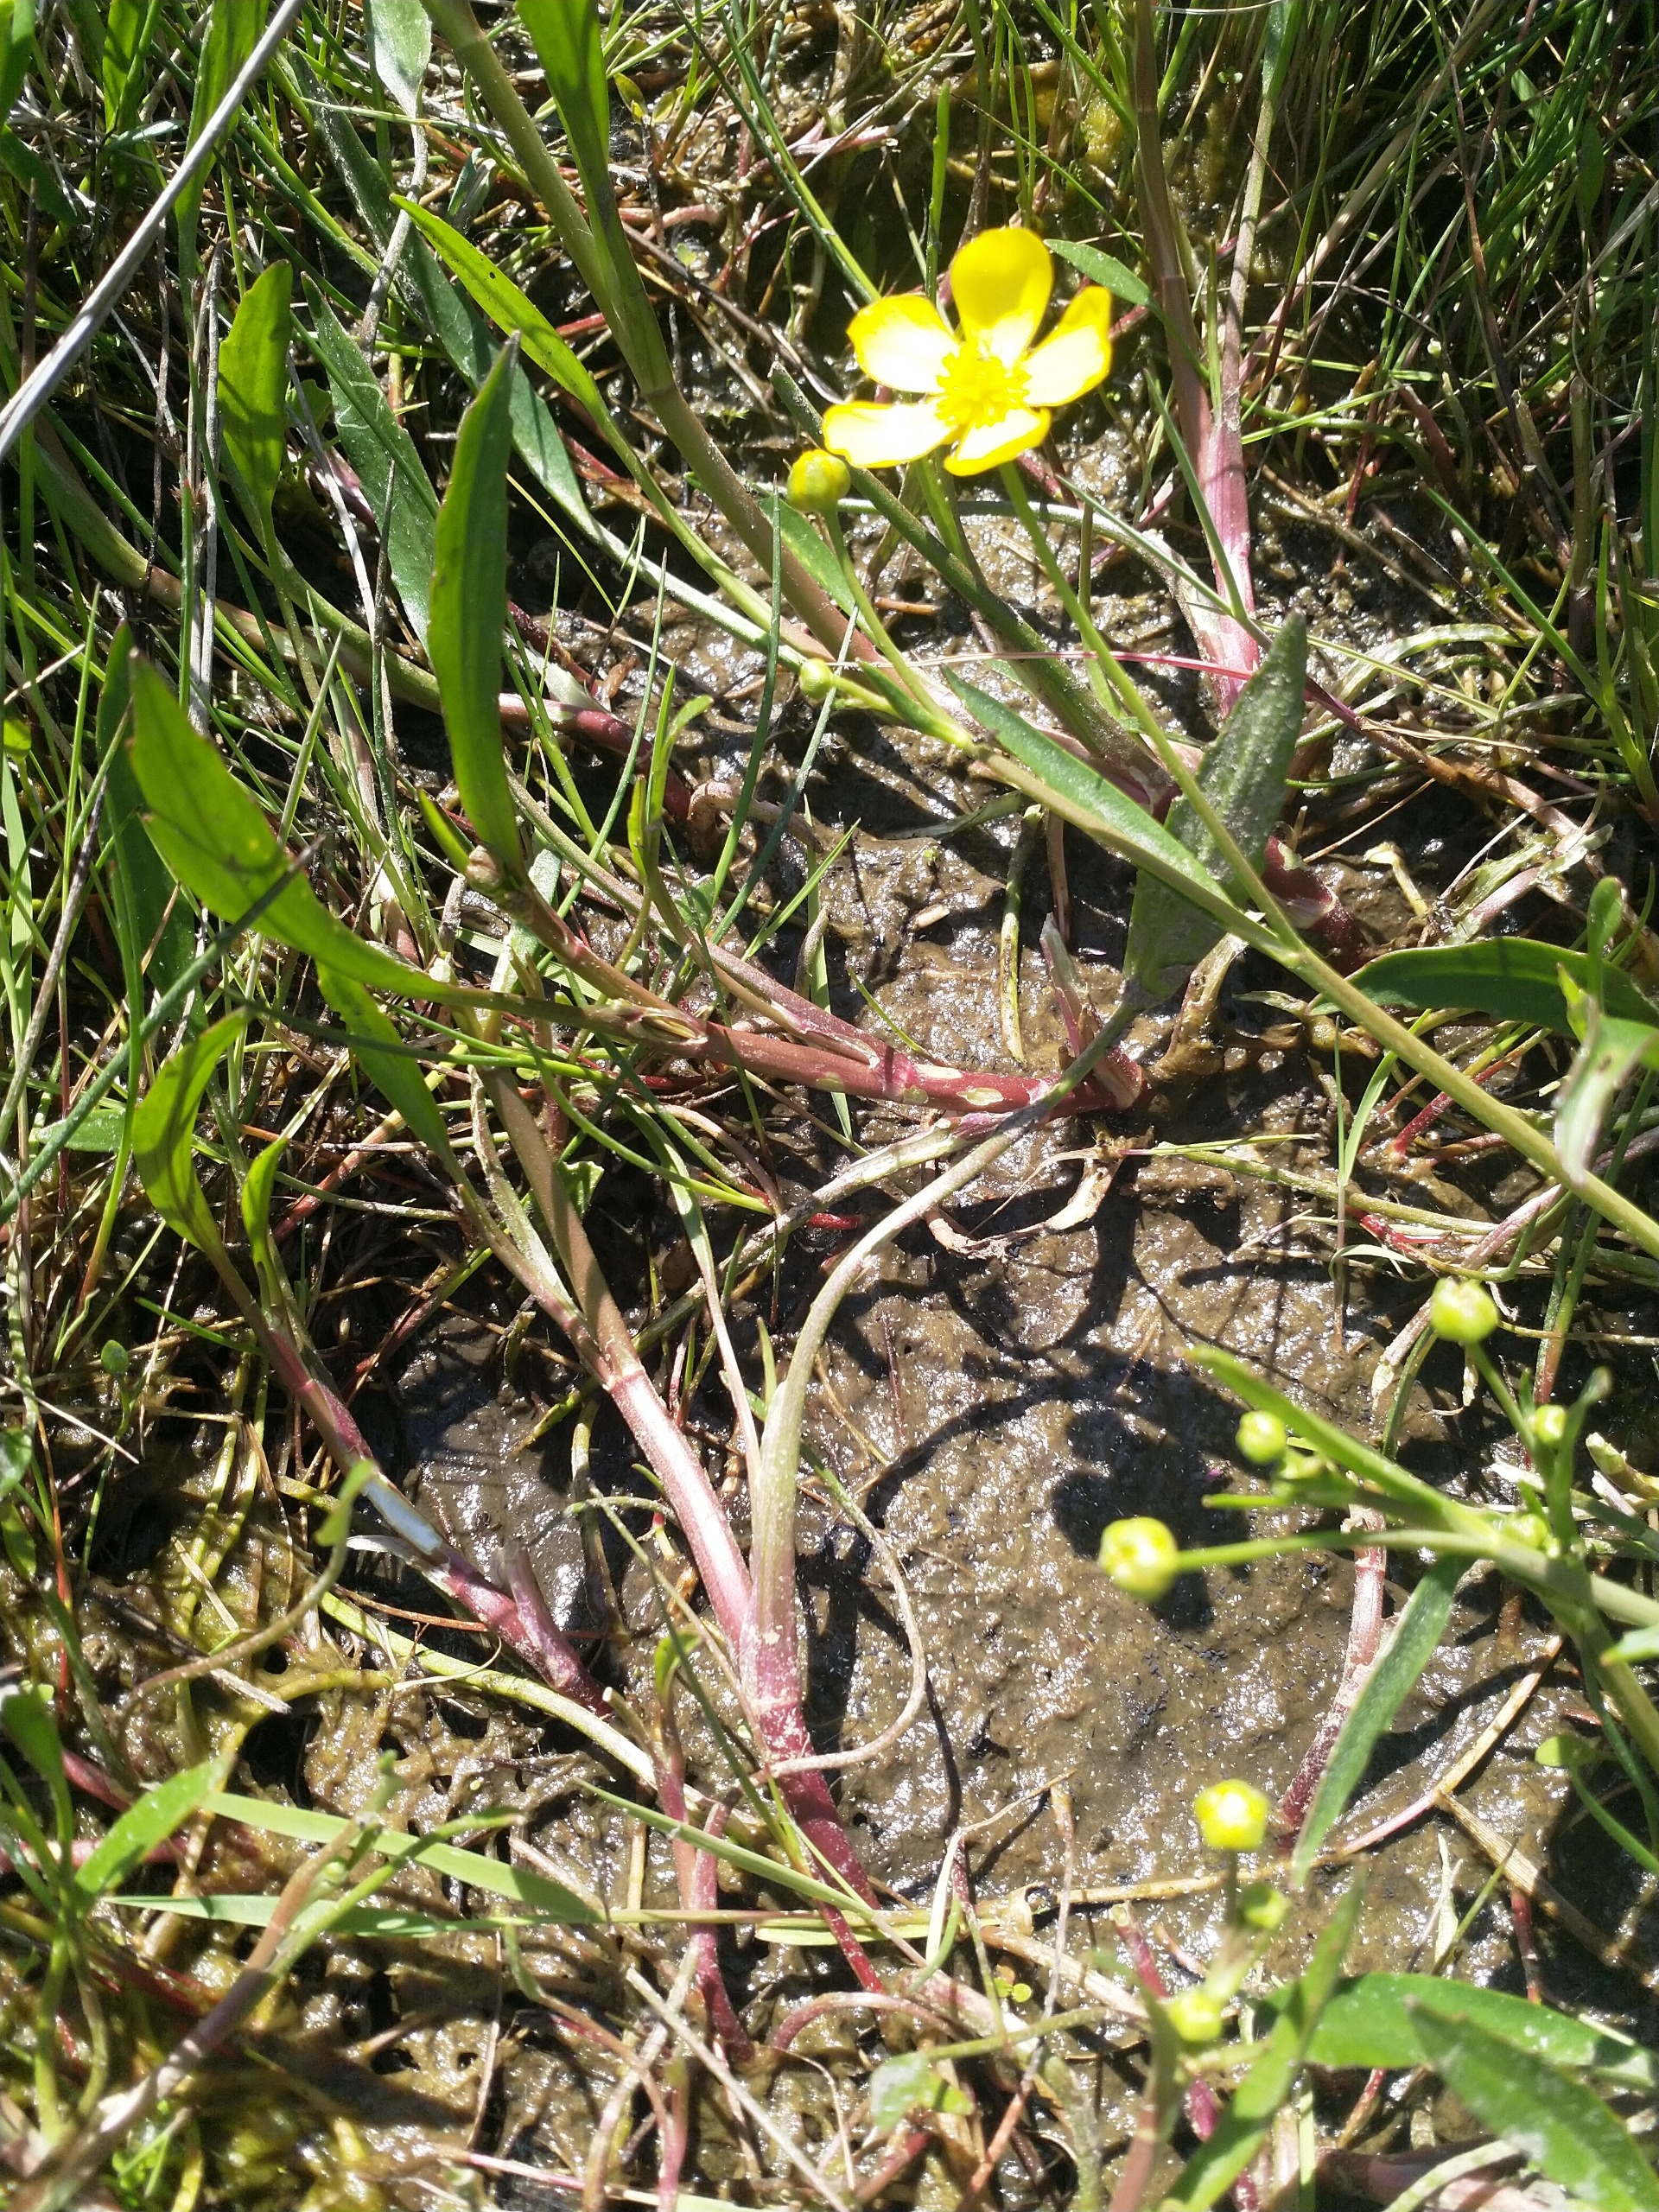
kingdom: Plantae
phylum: Tracheophyta
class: Magnoliopsida
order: Ranunculales
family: Ranunculaceae
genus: Ranunculus
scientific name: Ranunculus flammula
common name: Kær-ranunkel
